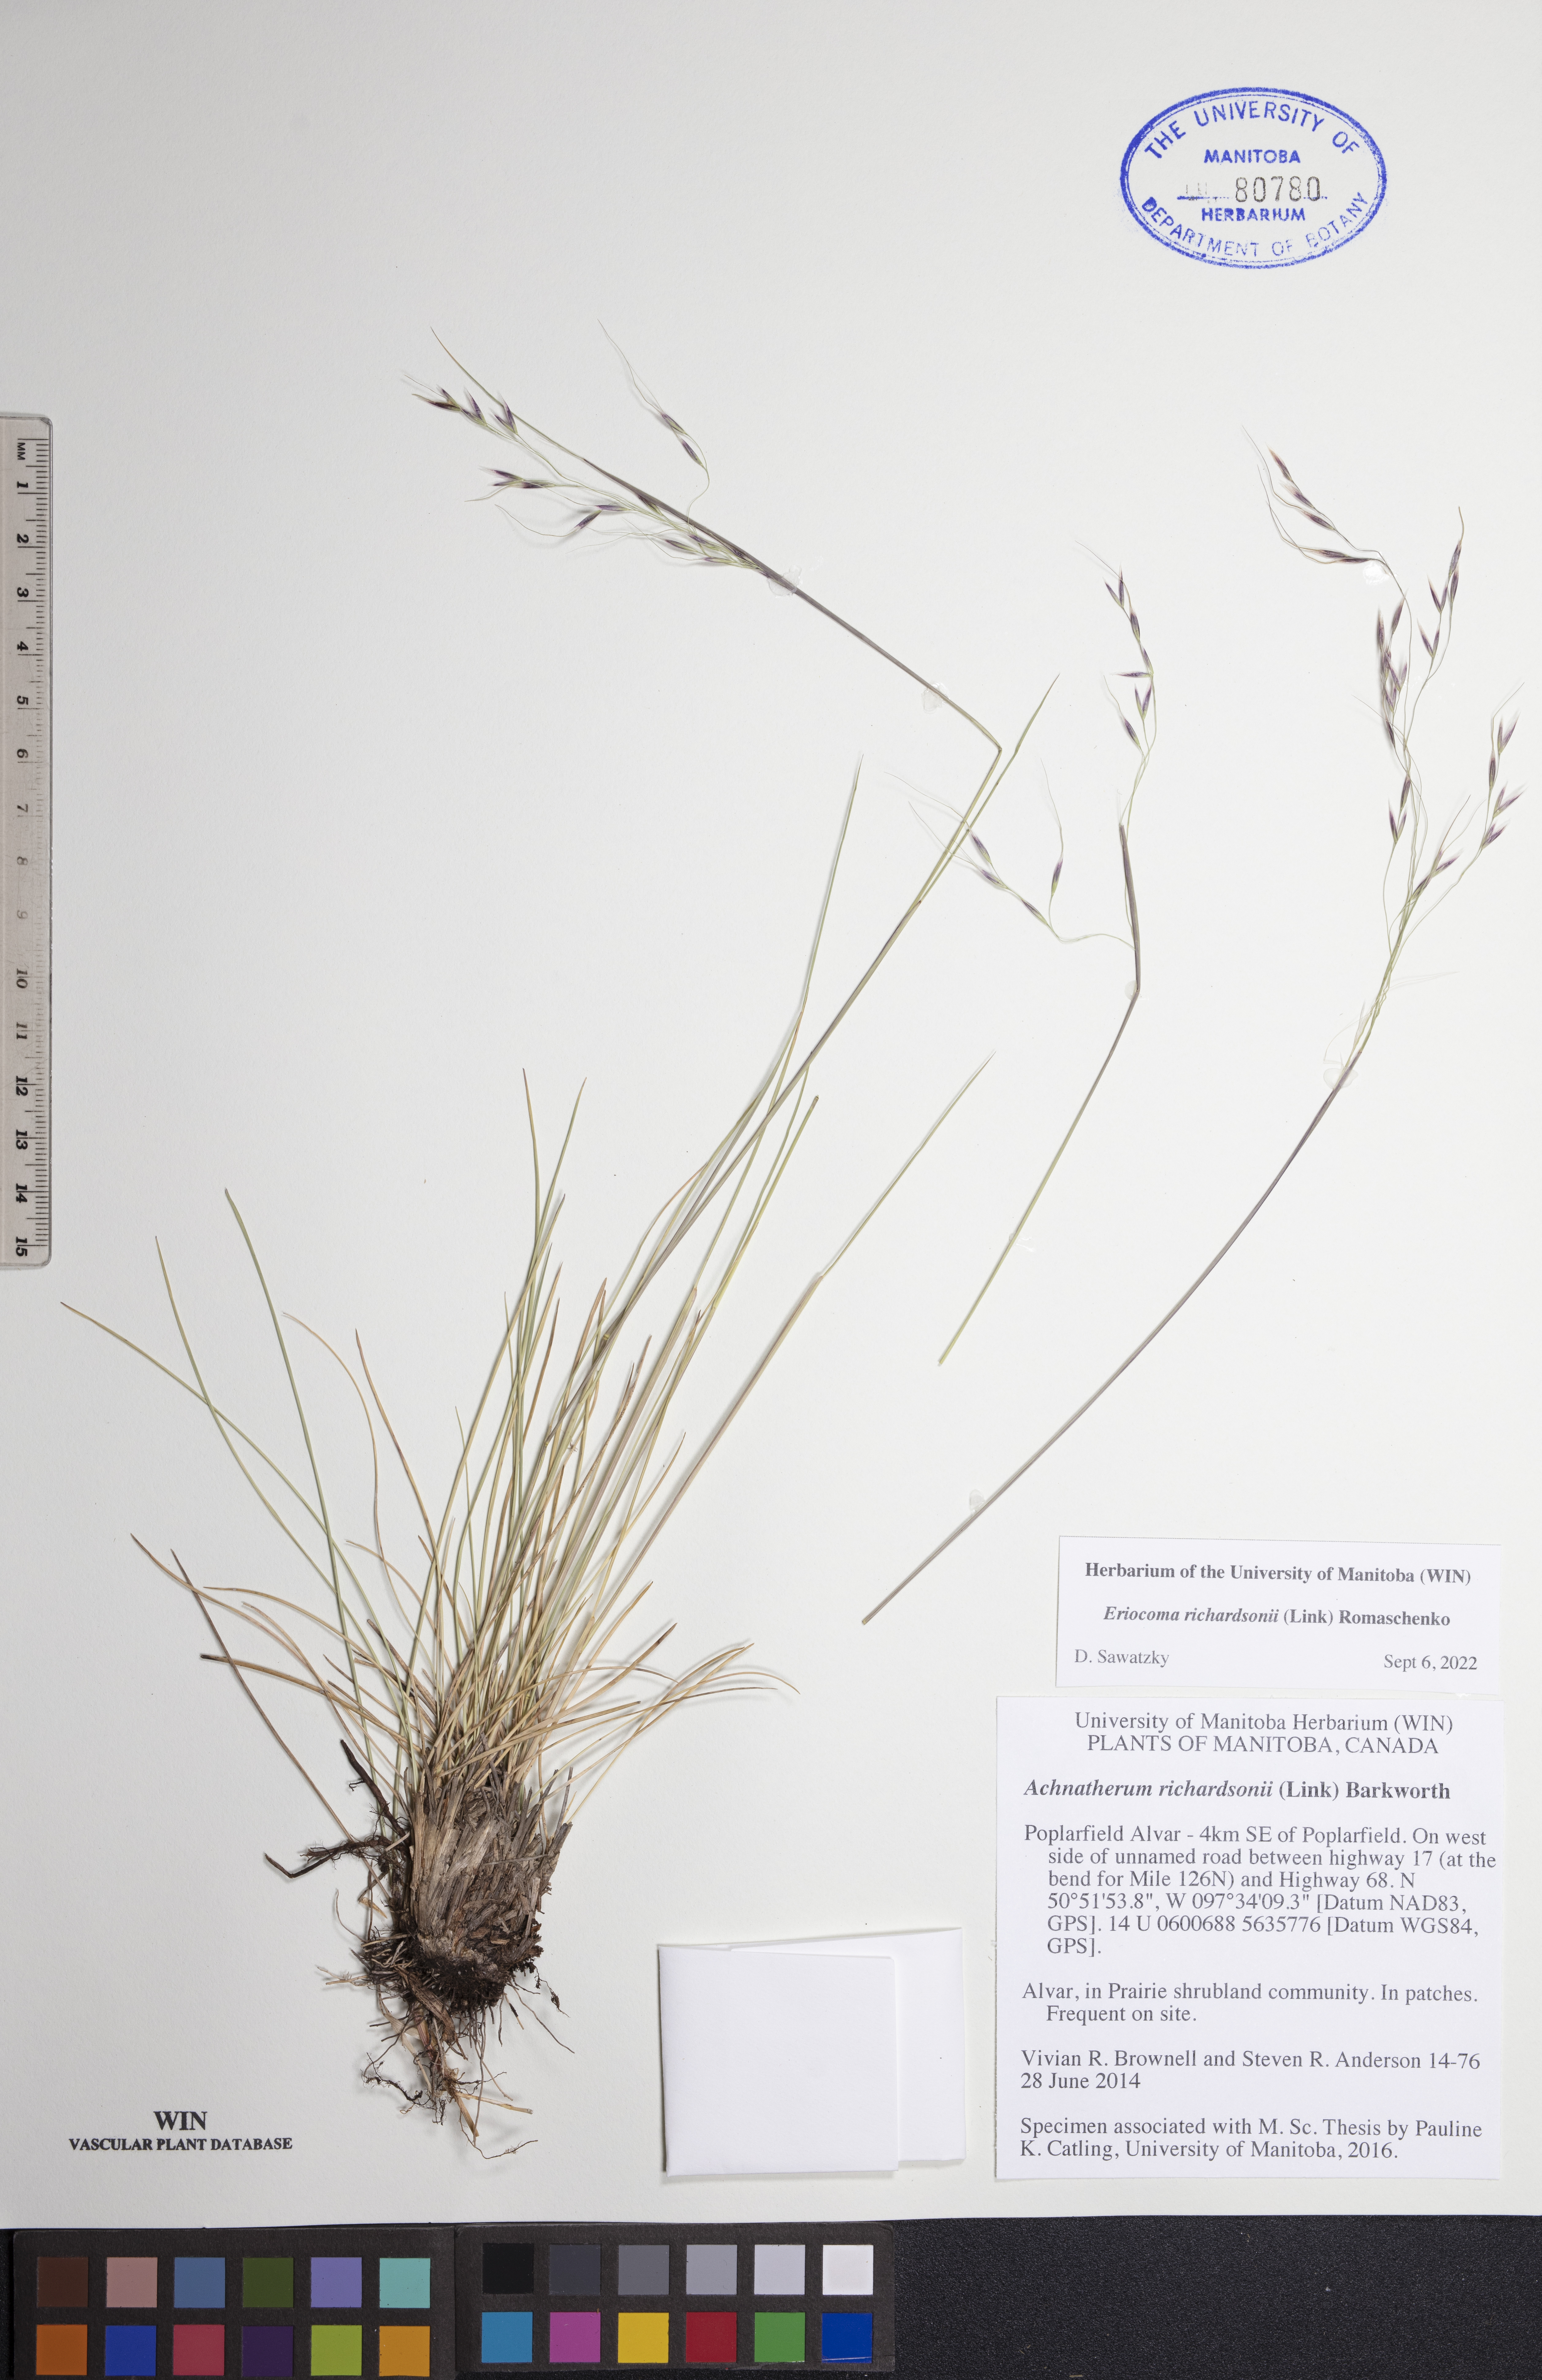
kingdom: Plantae
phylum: Tracheophyta
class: Liliopsida
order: Poales
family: Poaceae
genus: Eriocoma
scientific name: Eriocoma richardsonii
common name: Richardson's needlegrass
